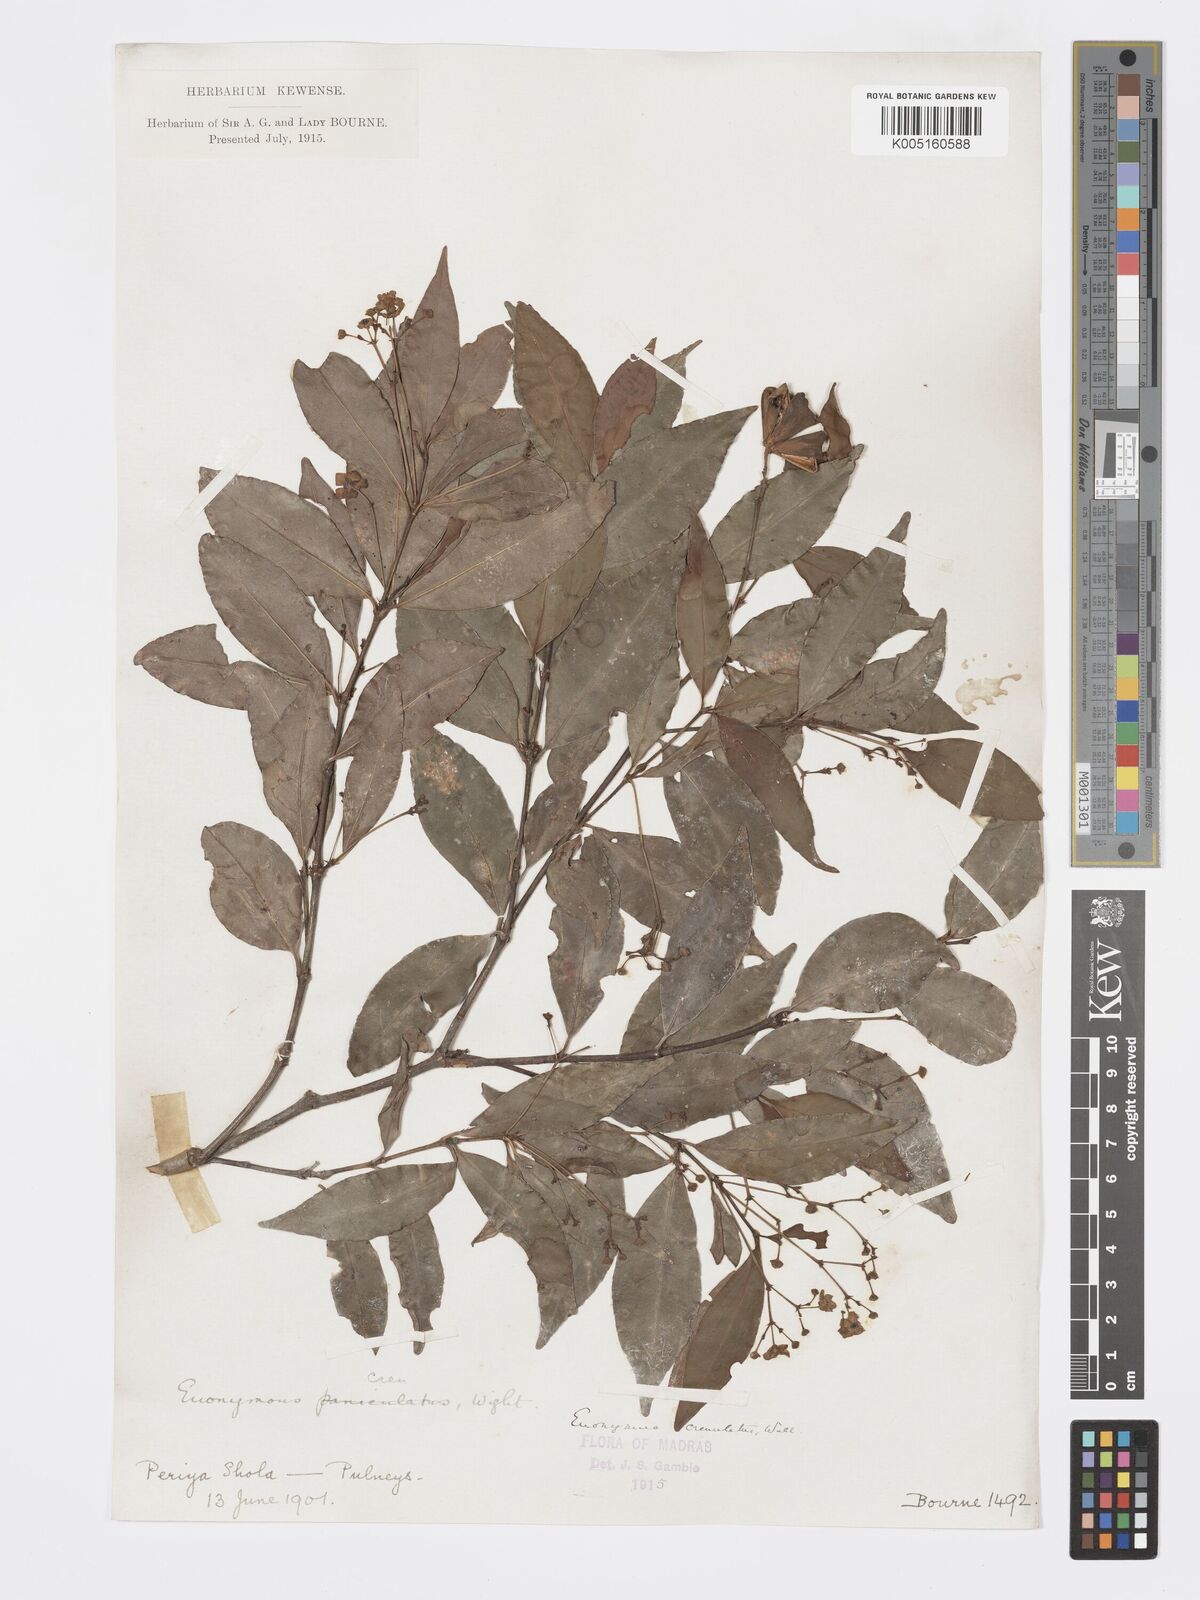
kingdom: Plantae
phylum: Tracheophyta
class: Magnoliopsida
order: Celastrales
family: Celastraceae
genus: Euonymus
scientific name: Euonymus crenulatus
